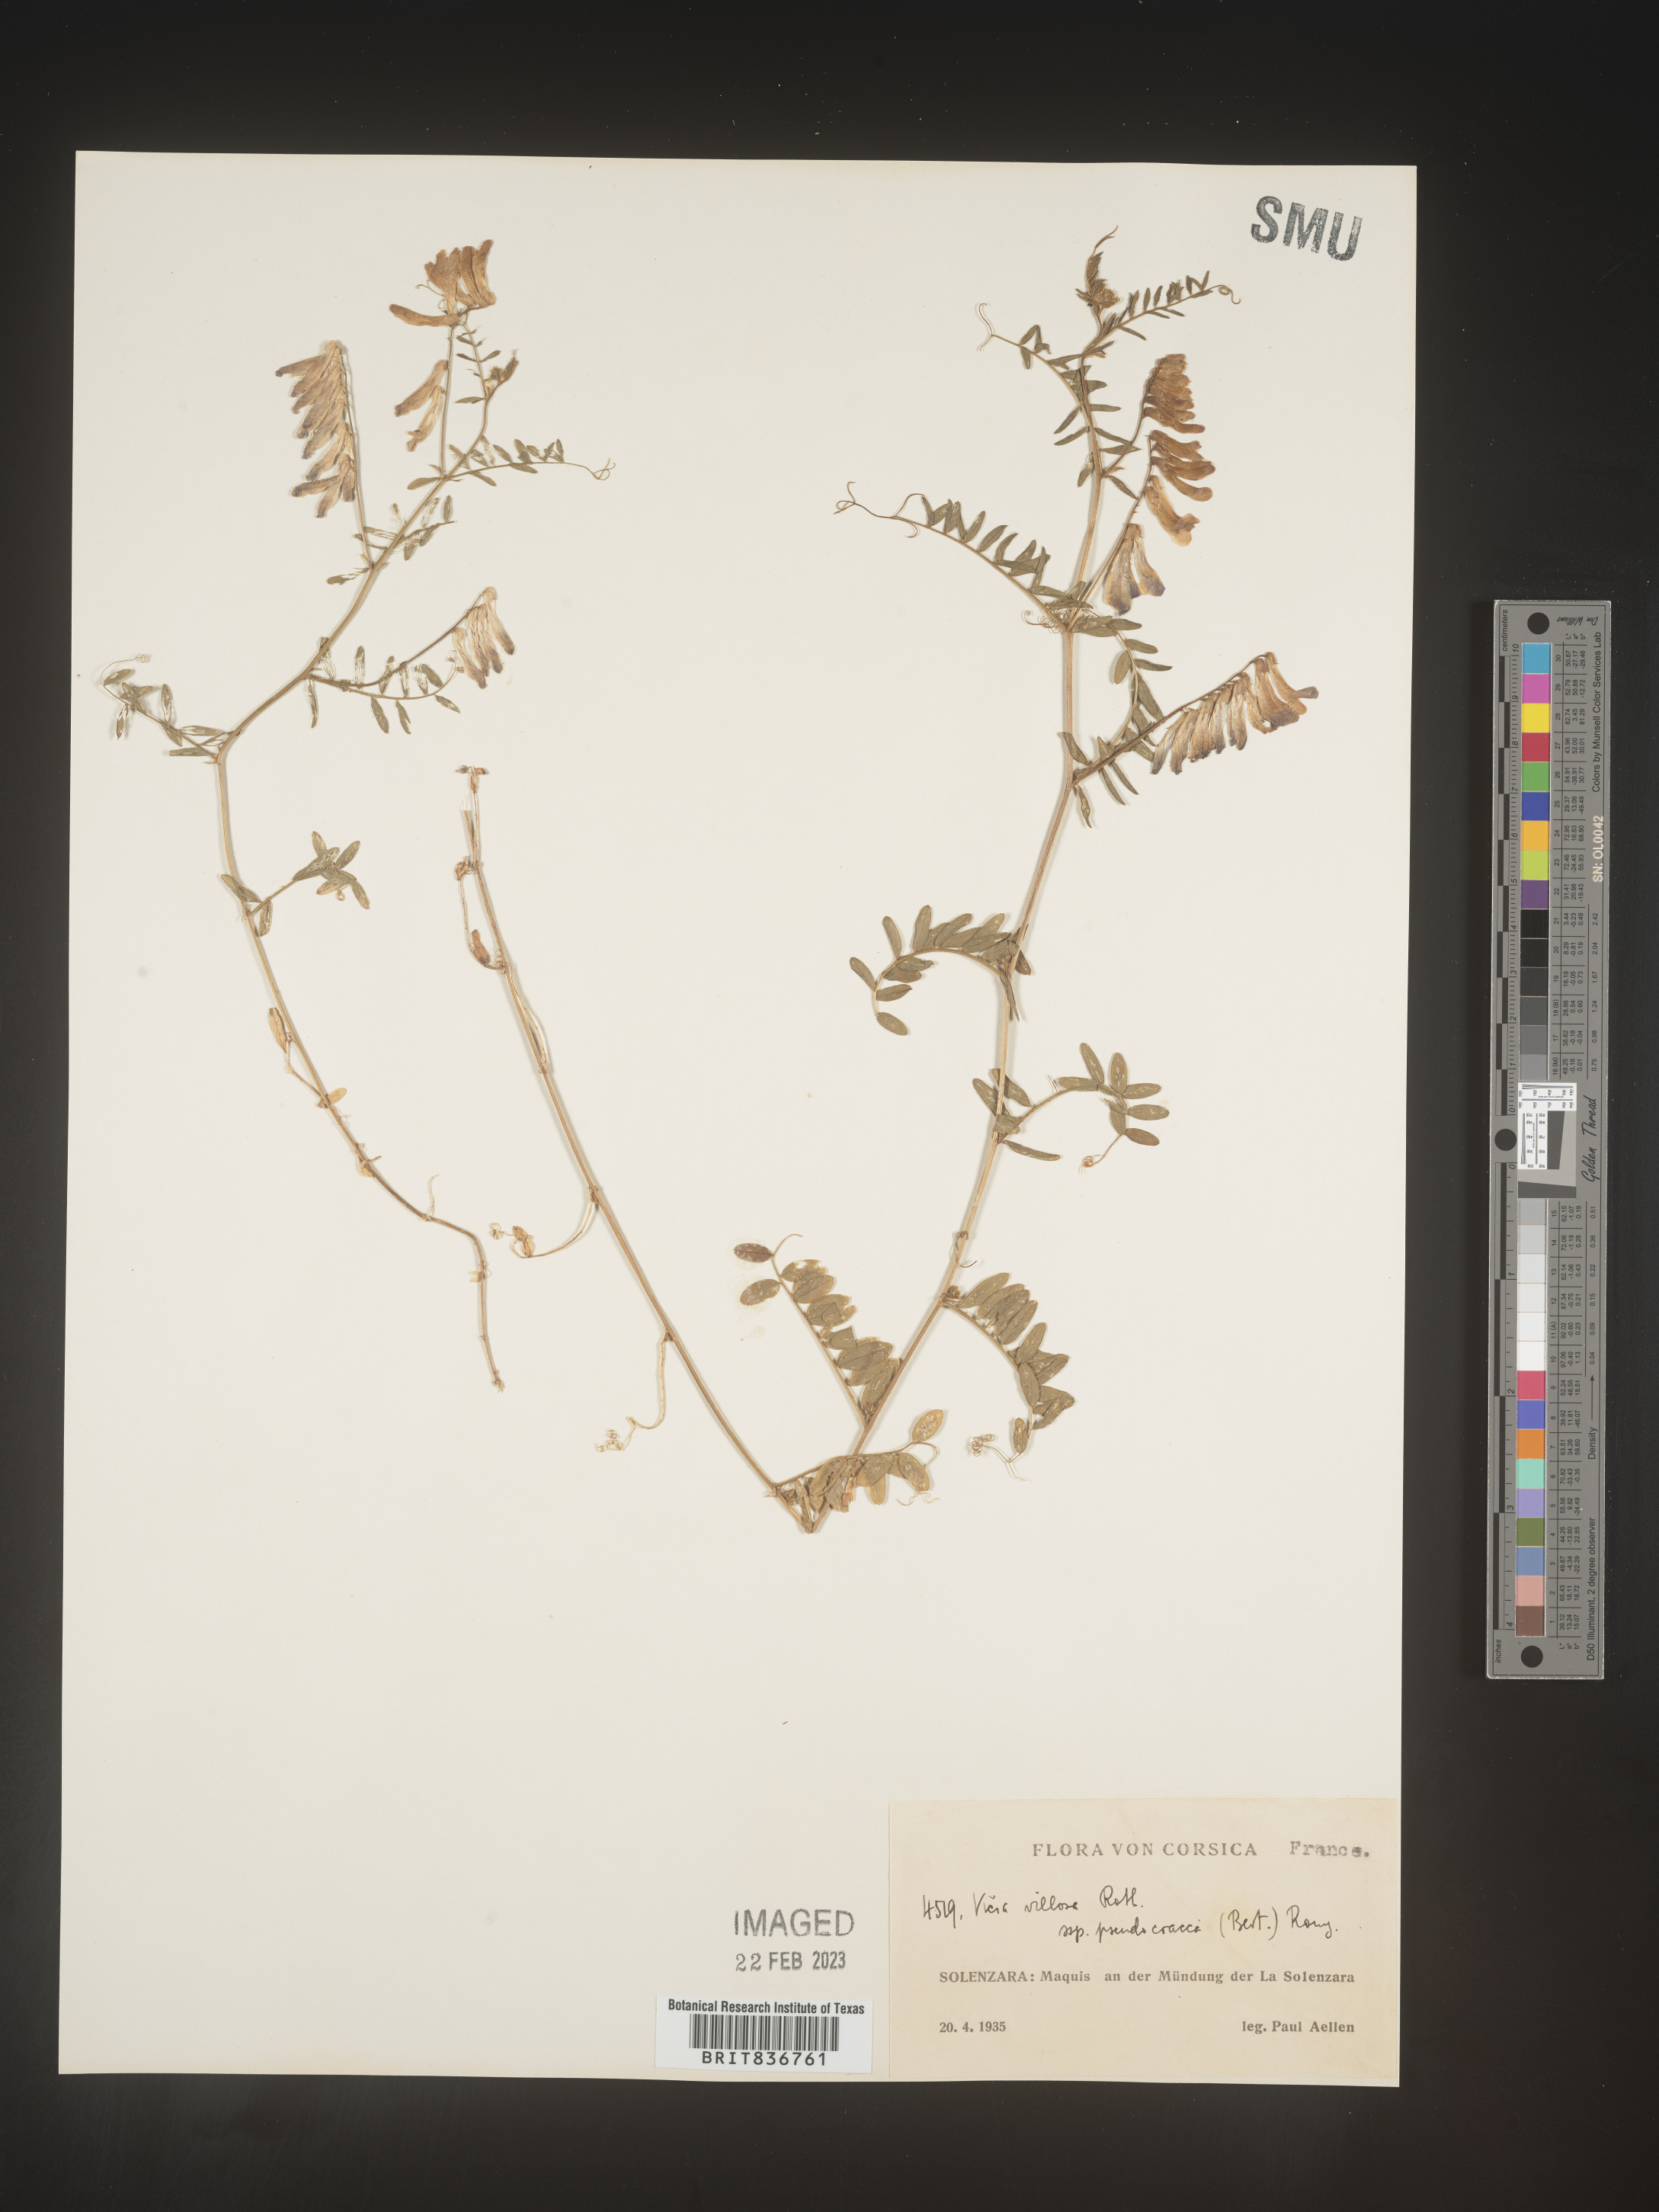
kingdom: Plantae
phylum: Tracheophyta
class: Magnoliopsida
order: Fabales
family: Fabaceae
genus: Vicia
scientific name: Vicia
